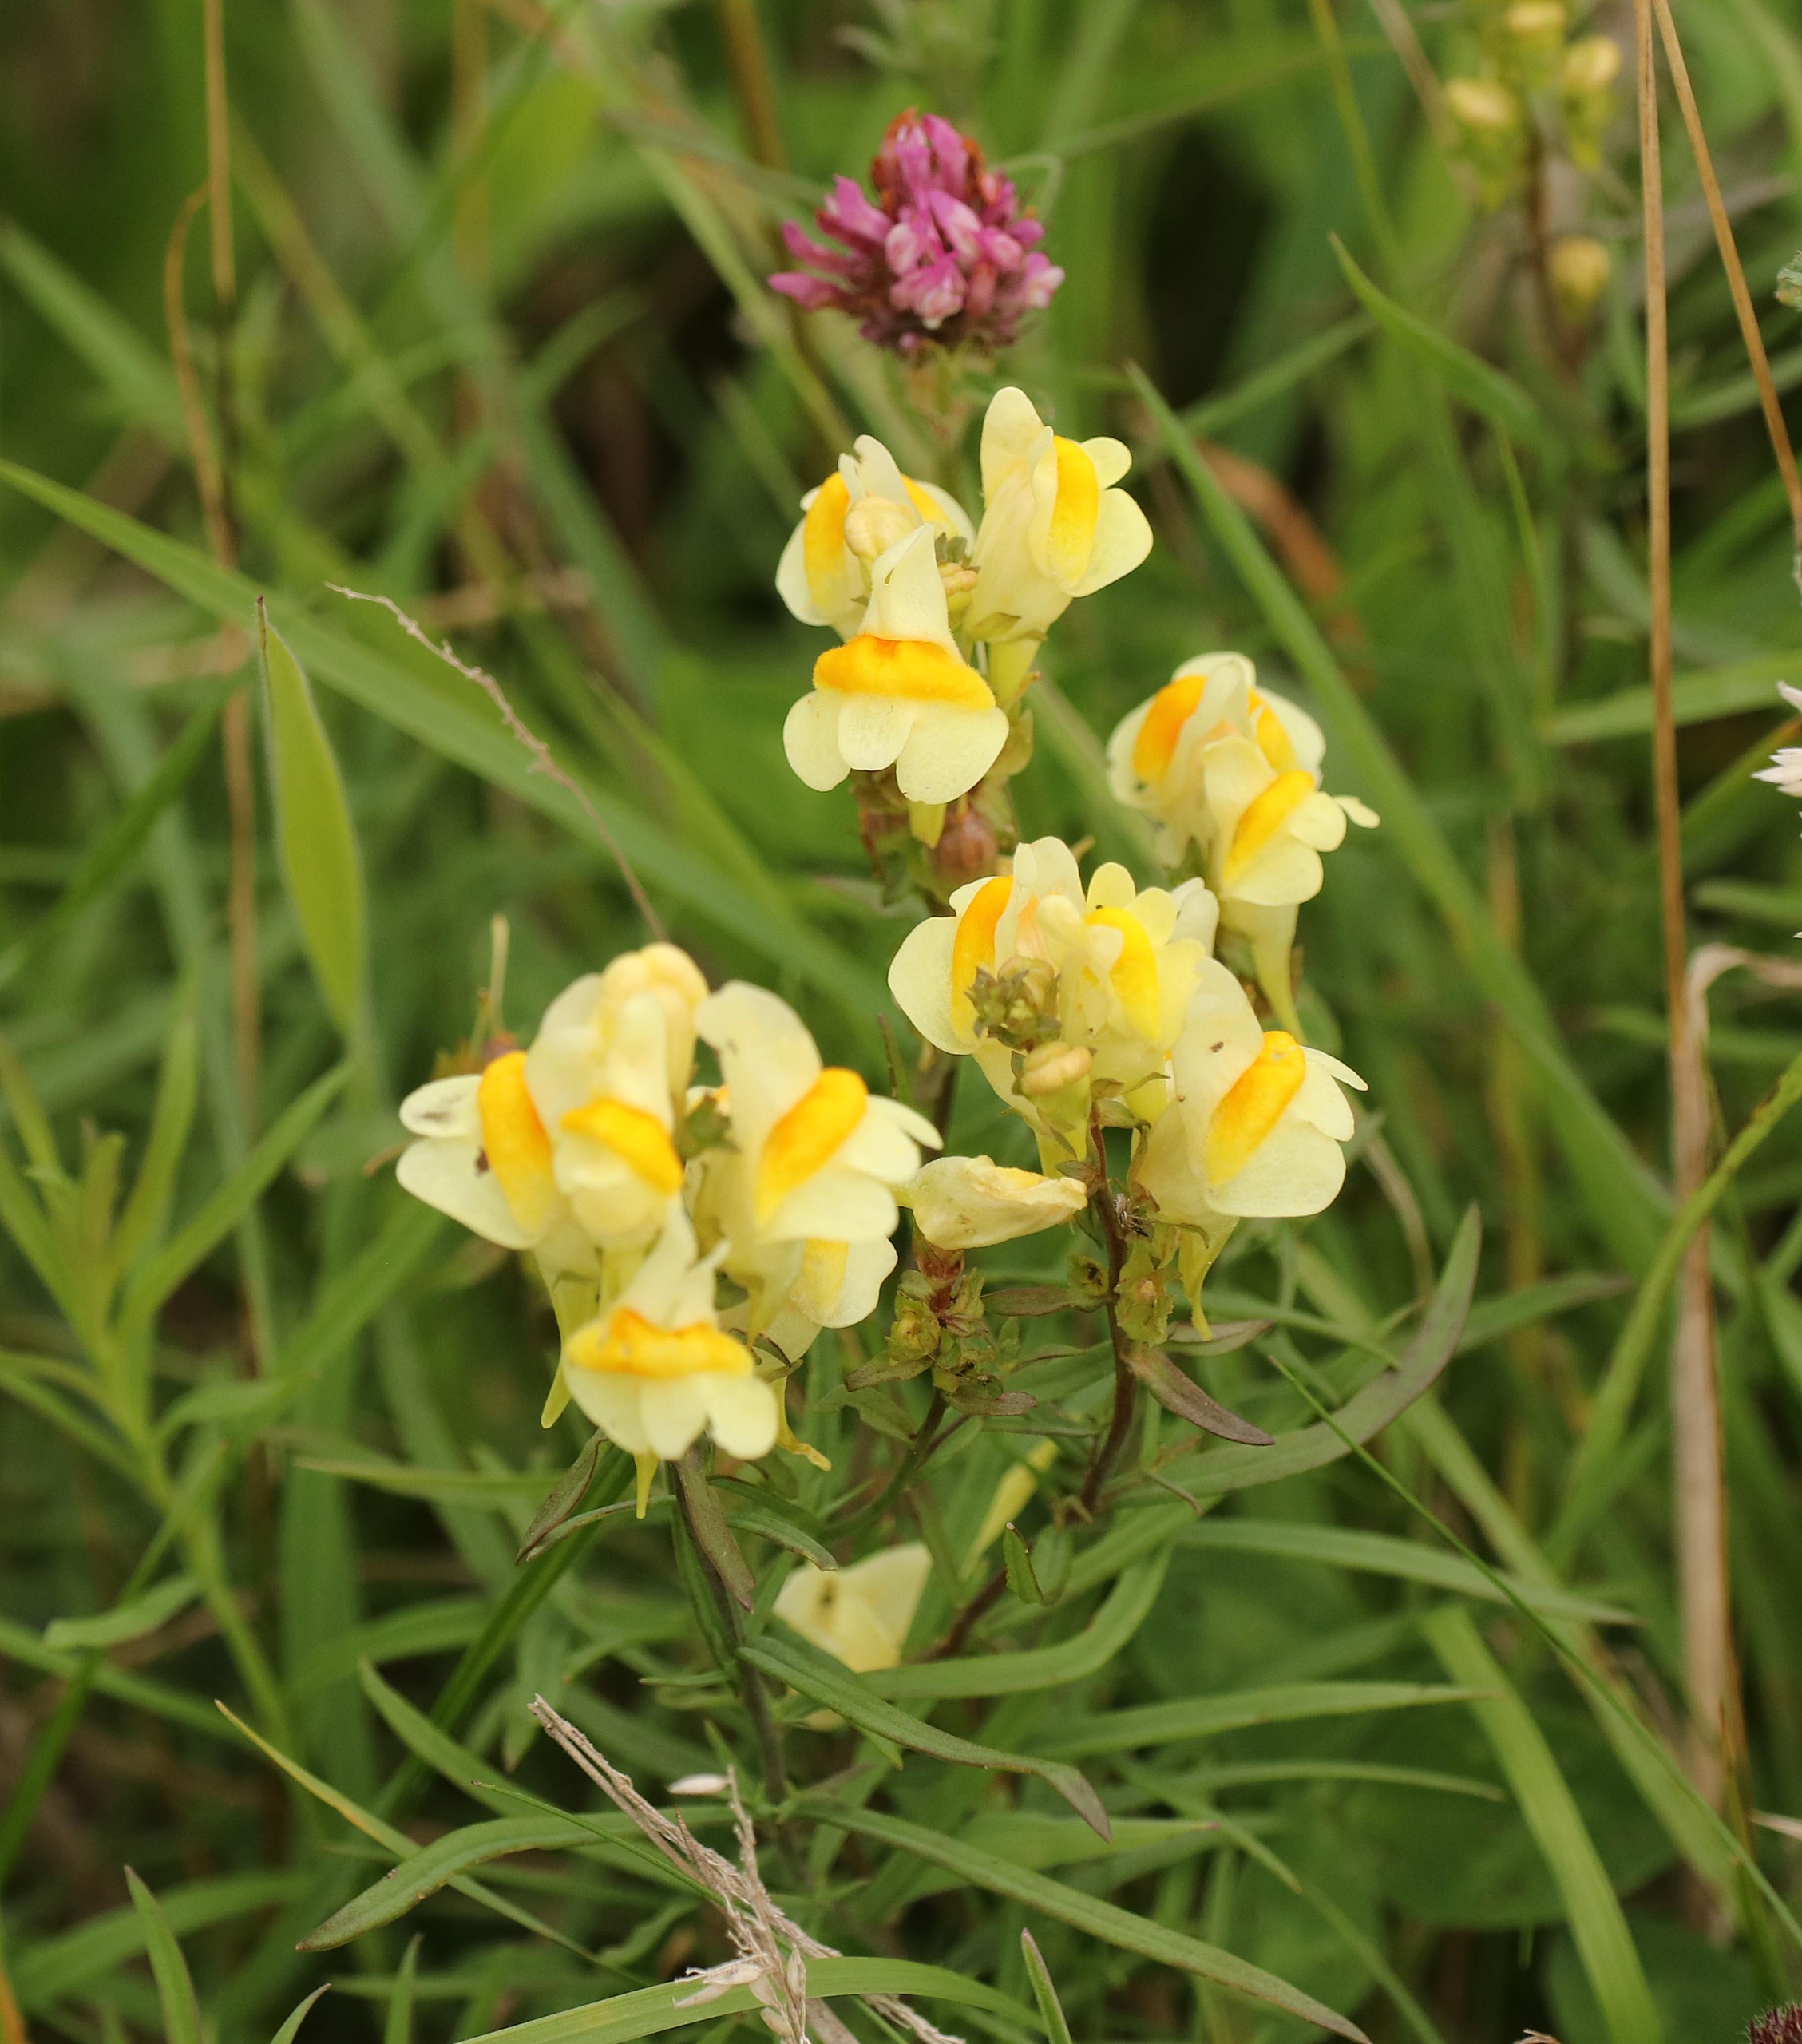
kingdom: Plantae
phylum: Tracheophyta
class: Magnoliopsida
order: Lamiales
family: Plantaginaceae
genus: Linaria
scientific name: Linaria vulgaris
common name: Almindelig torskemund
